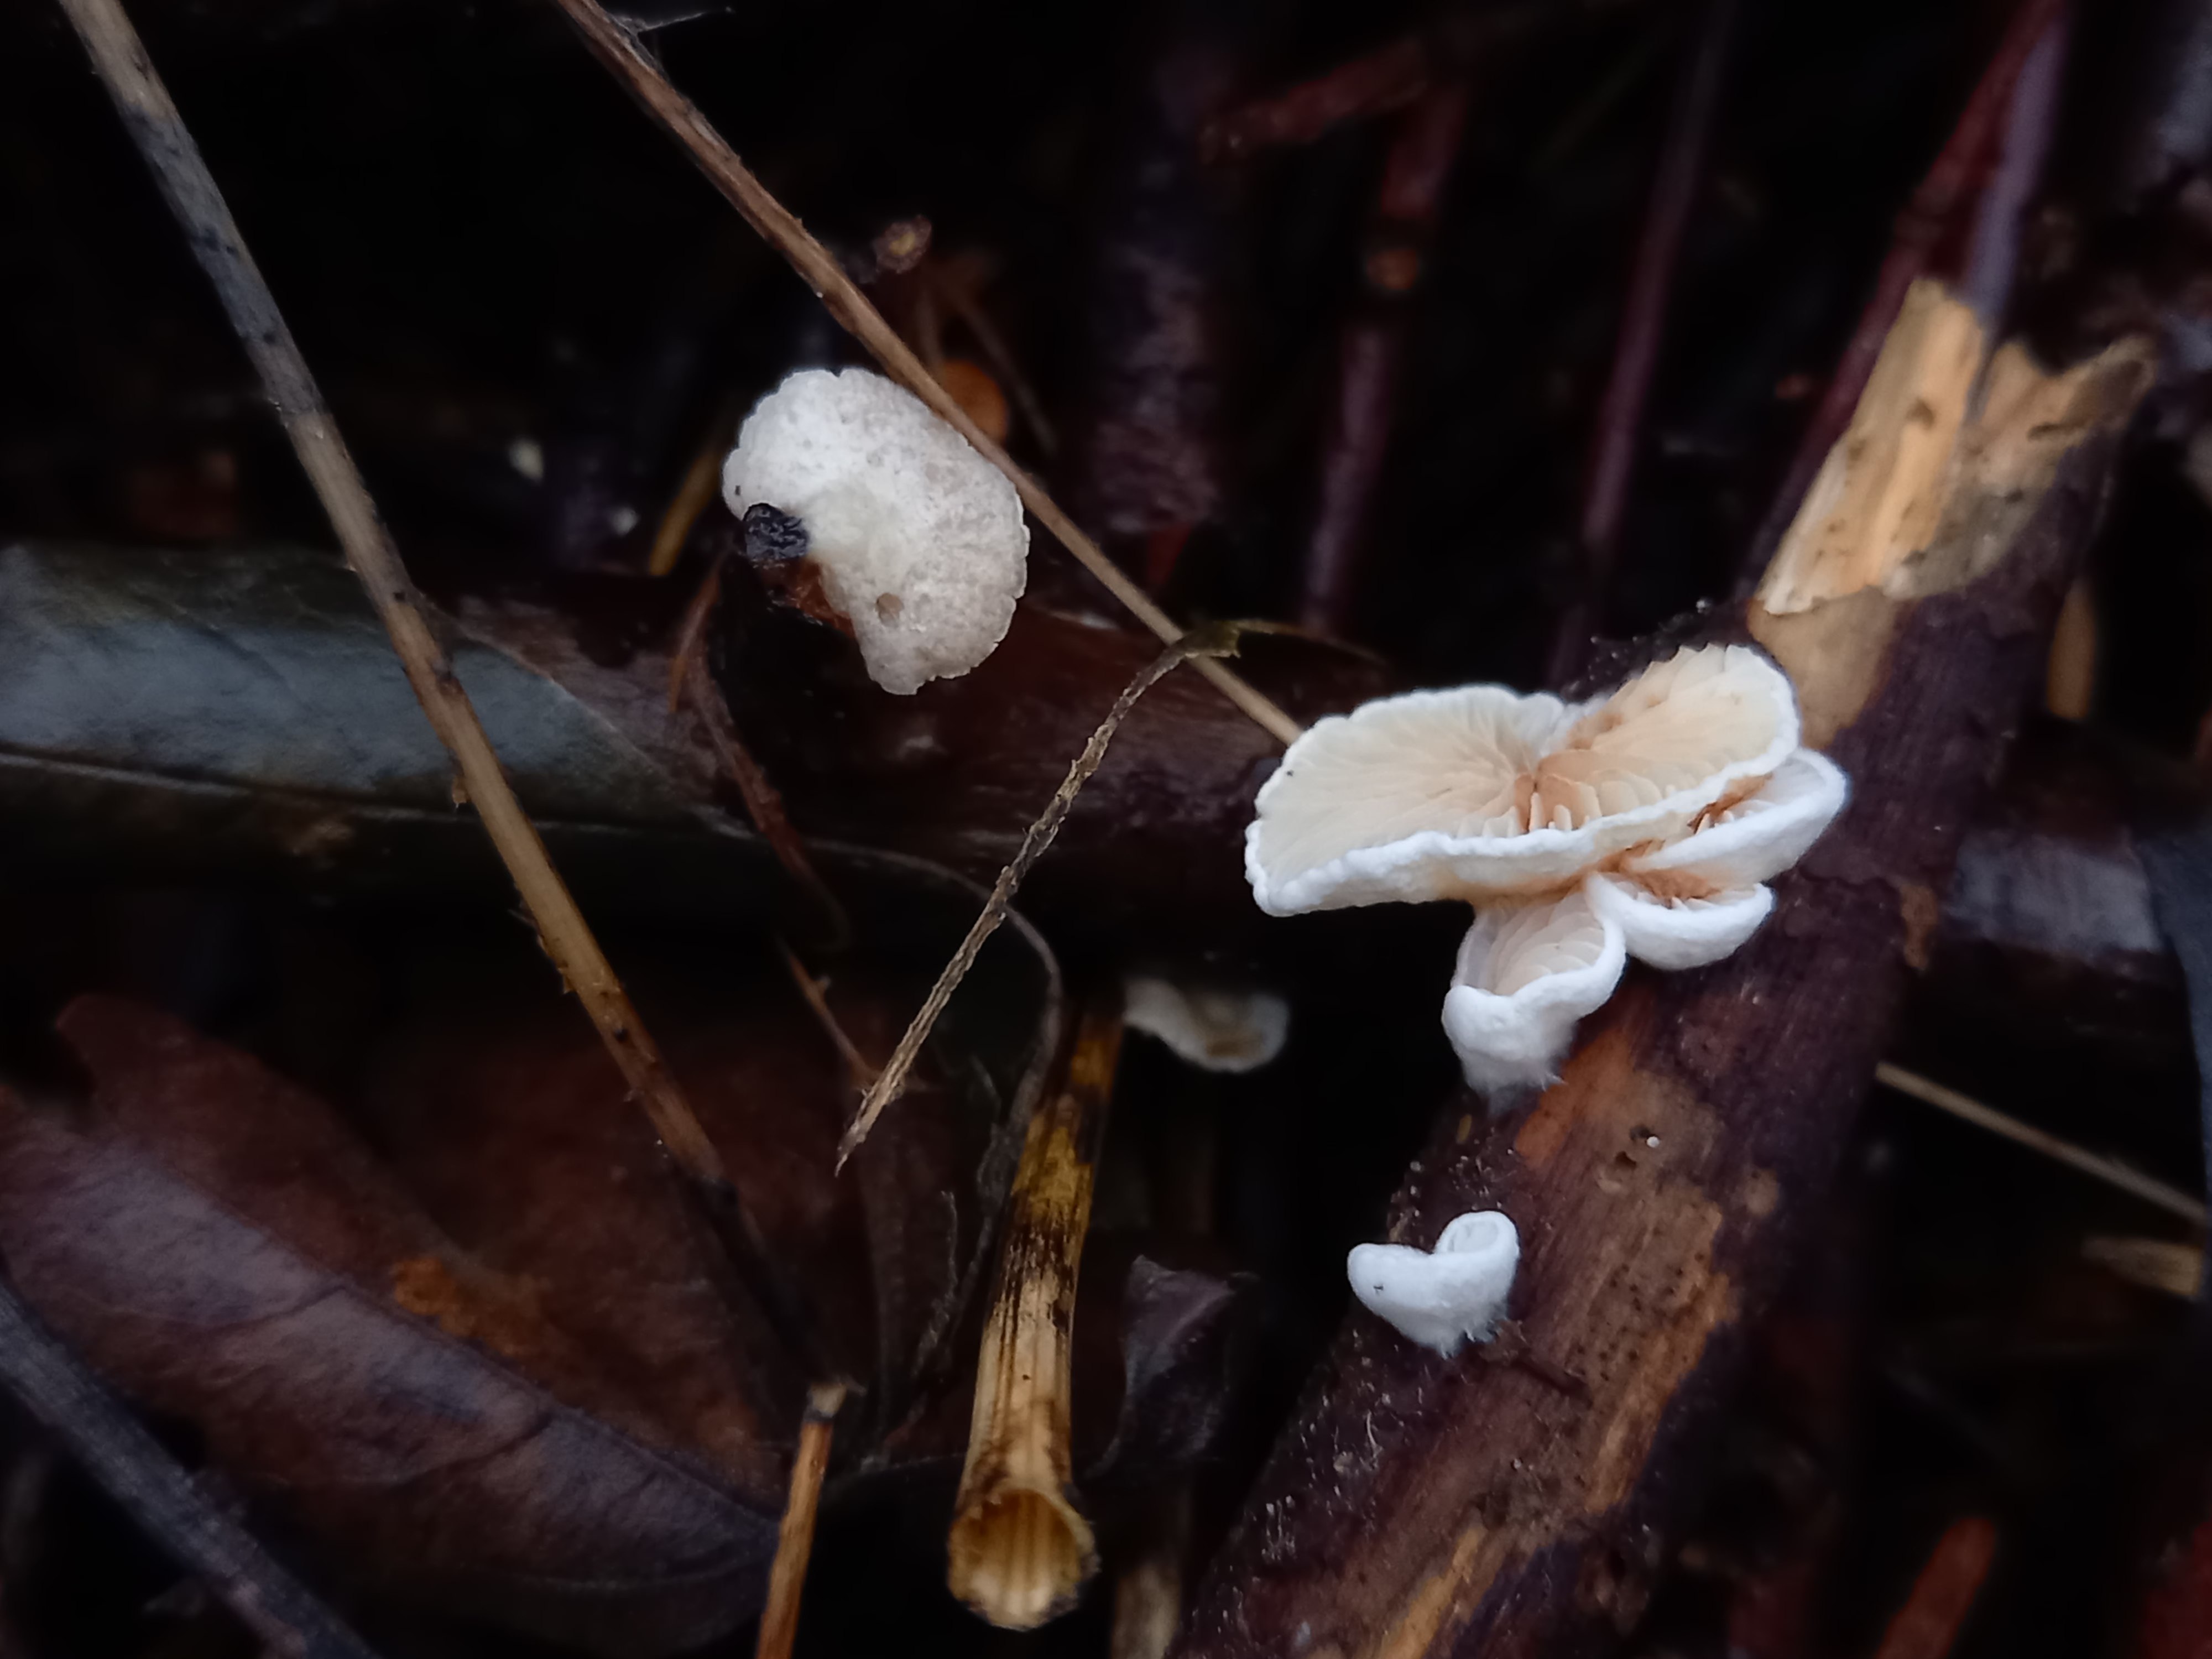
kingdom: Fungi
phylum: Basidiomycota
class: Agaricomycetes
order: Agaricales
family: Crepidotaceae
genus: Crepidotus
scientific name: Crepidotus cesatii
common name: almindelig muslingesvamp
